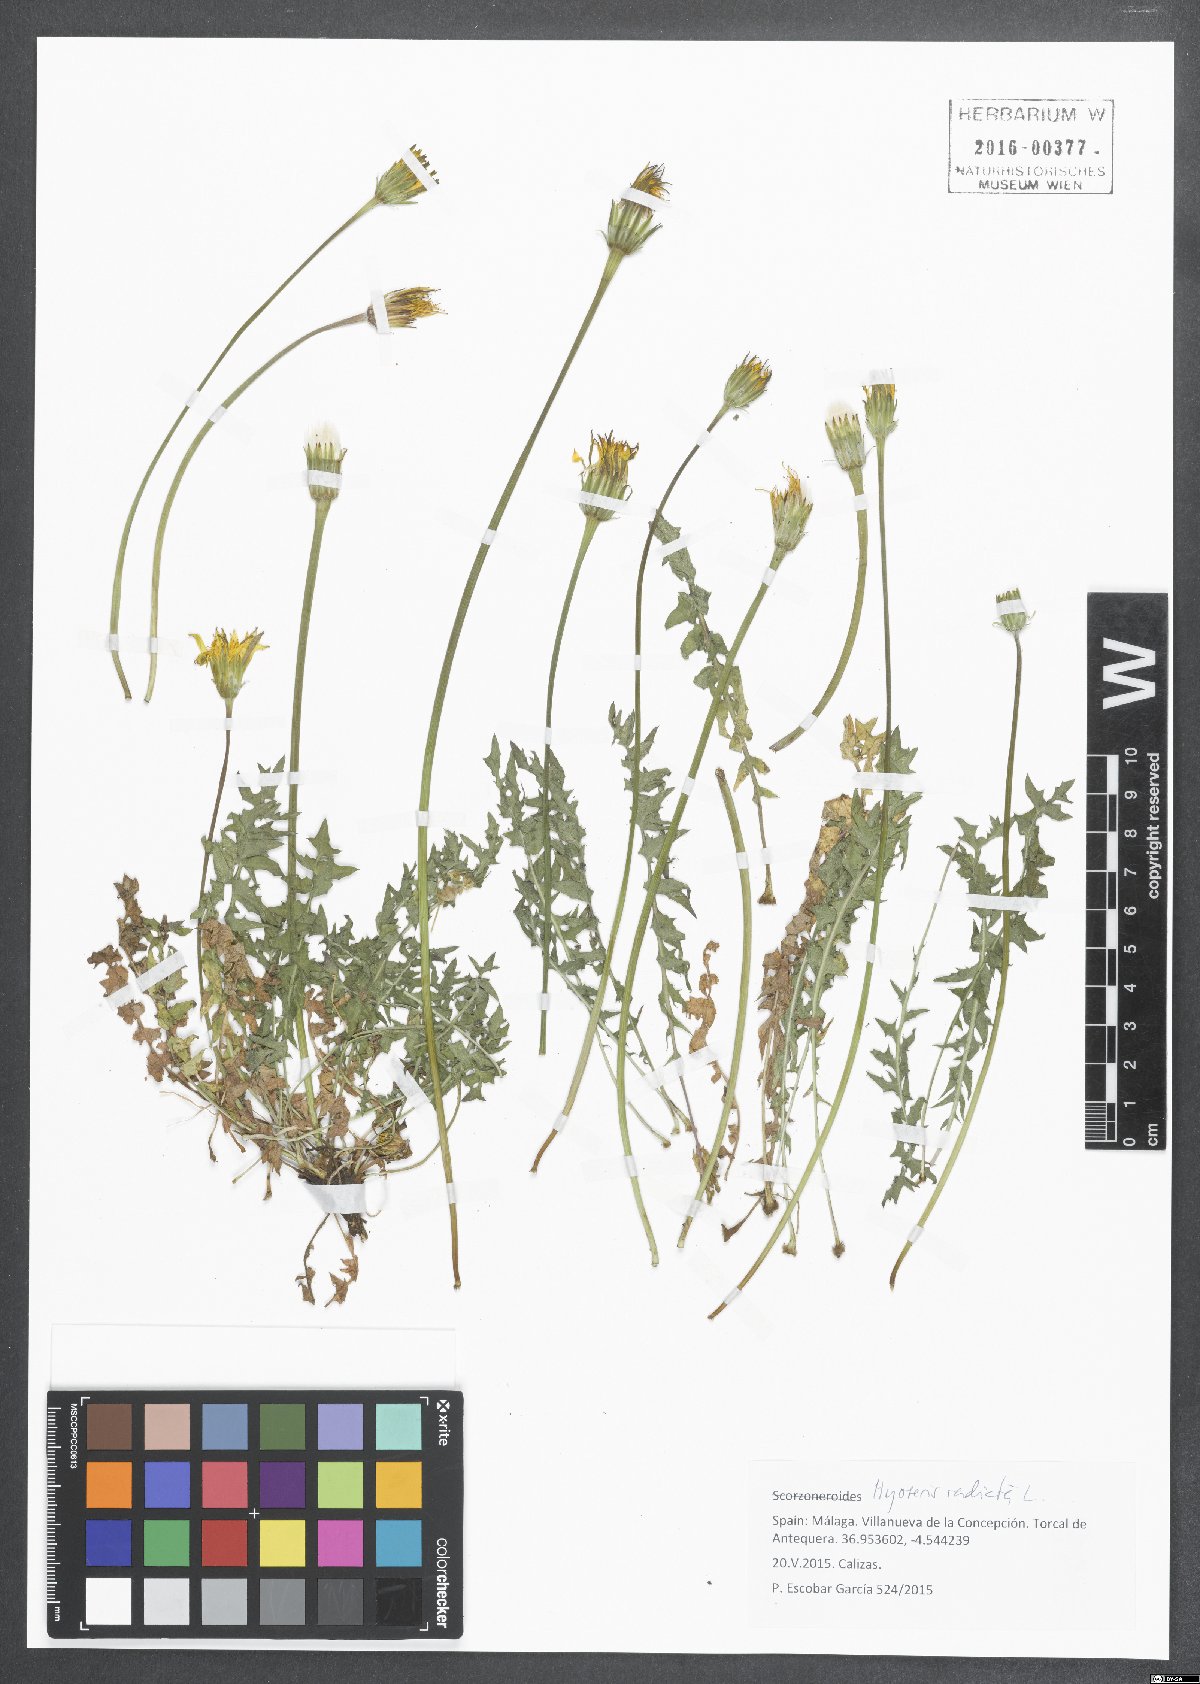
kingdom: Plantae
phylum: Tracheophyta
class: Magnoliopsida
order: Asterales
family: Asteraceae
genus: Hyoseris
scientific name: Hyoseris radiata
